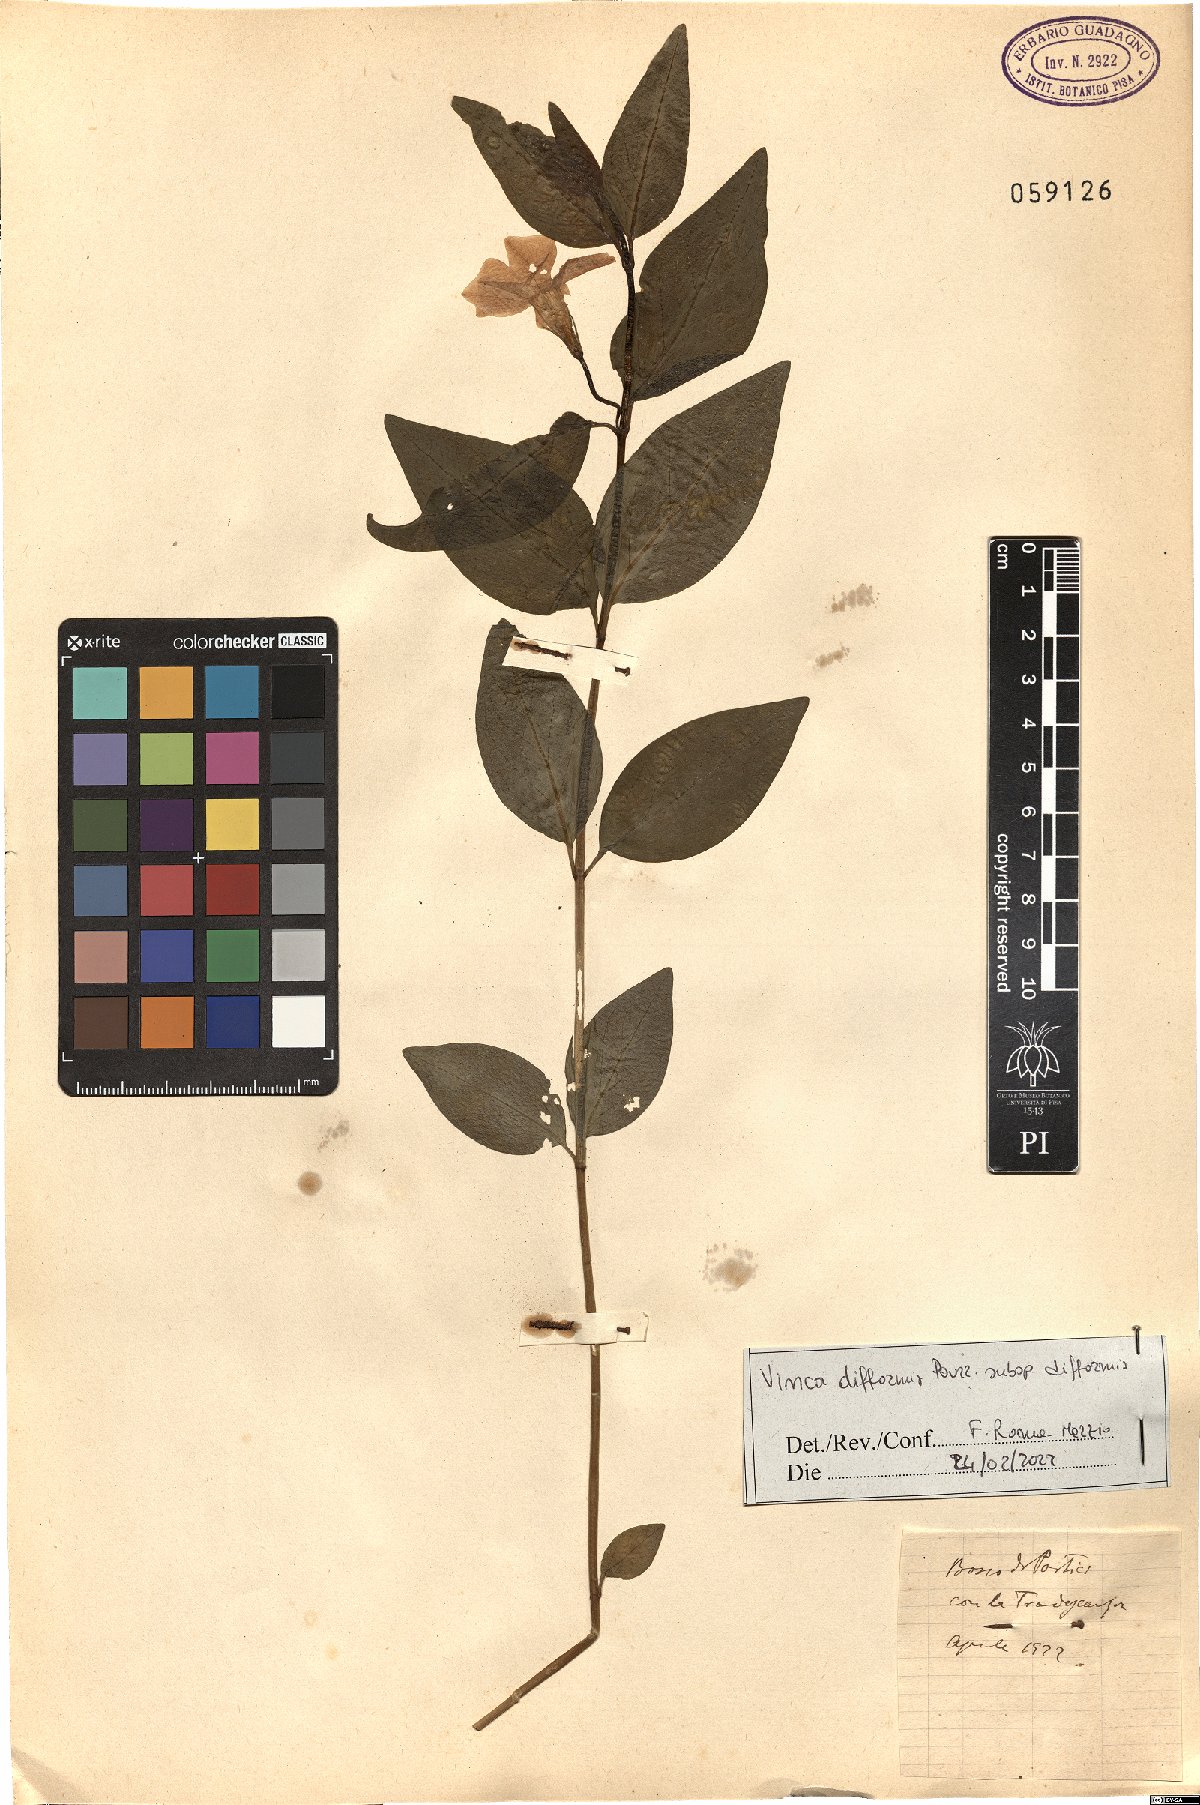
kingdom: Plantae
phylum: Tracheophyta
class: Magnoliopsida
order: Gentianales
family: Apocynaceae
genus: Vinca
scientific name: Vinca difformis
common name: Intermediate periwinkle
